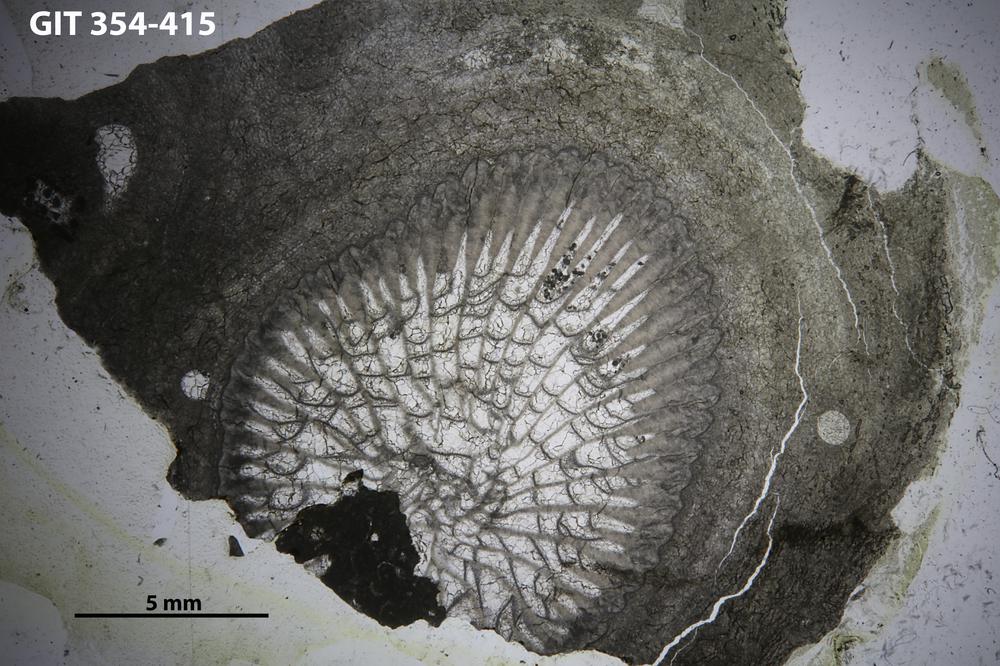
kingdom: Animalia
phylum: Porifera
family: Clathrodictyidae
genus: Clathrodictyon
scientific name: Clathrodictyon kudriavzevi
